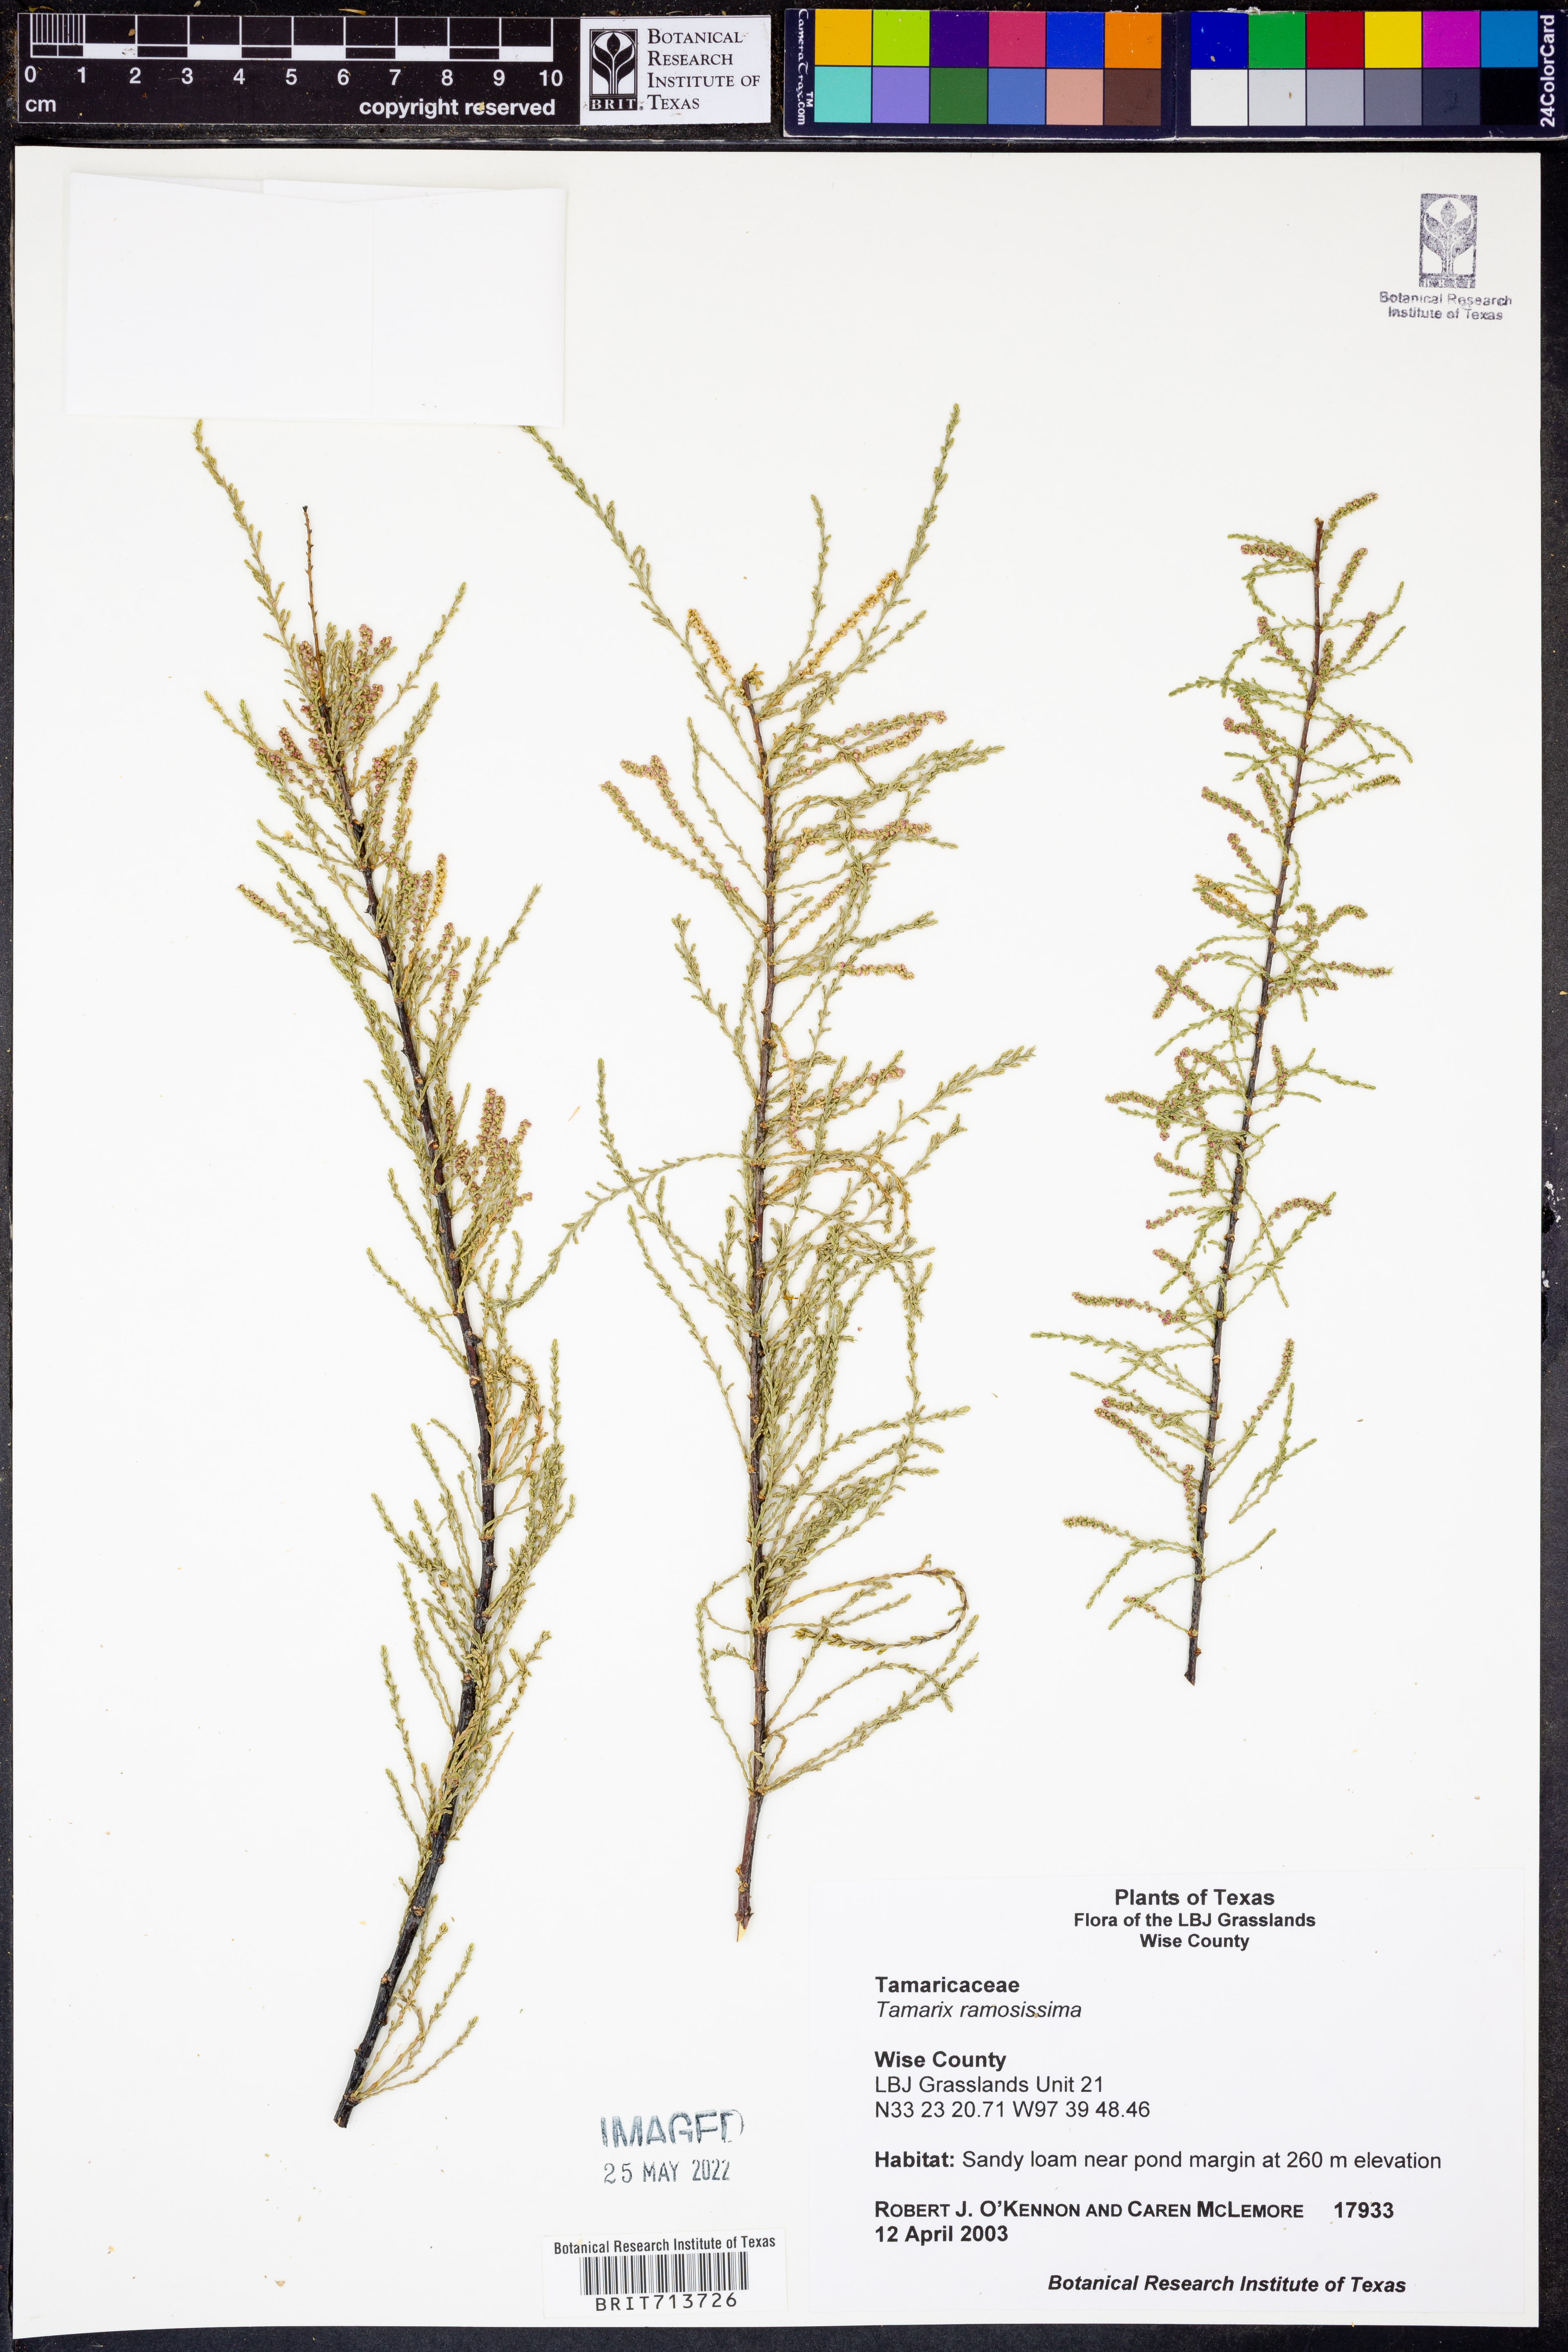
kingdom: Plantae
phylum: Tracheophyta
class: Magnoliopsida
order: Caryophyllales
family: Tamaricaceae
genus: Tamarix
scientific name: Tamarix ramosissima
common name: Pink tamarisk
